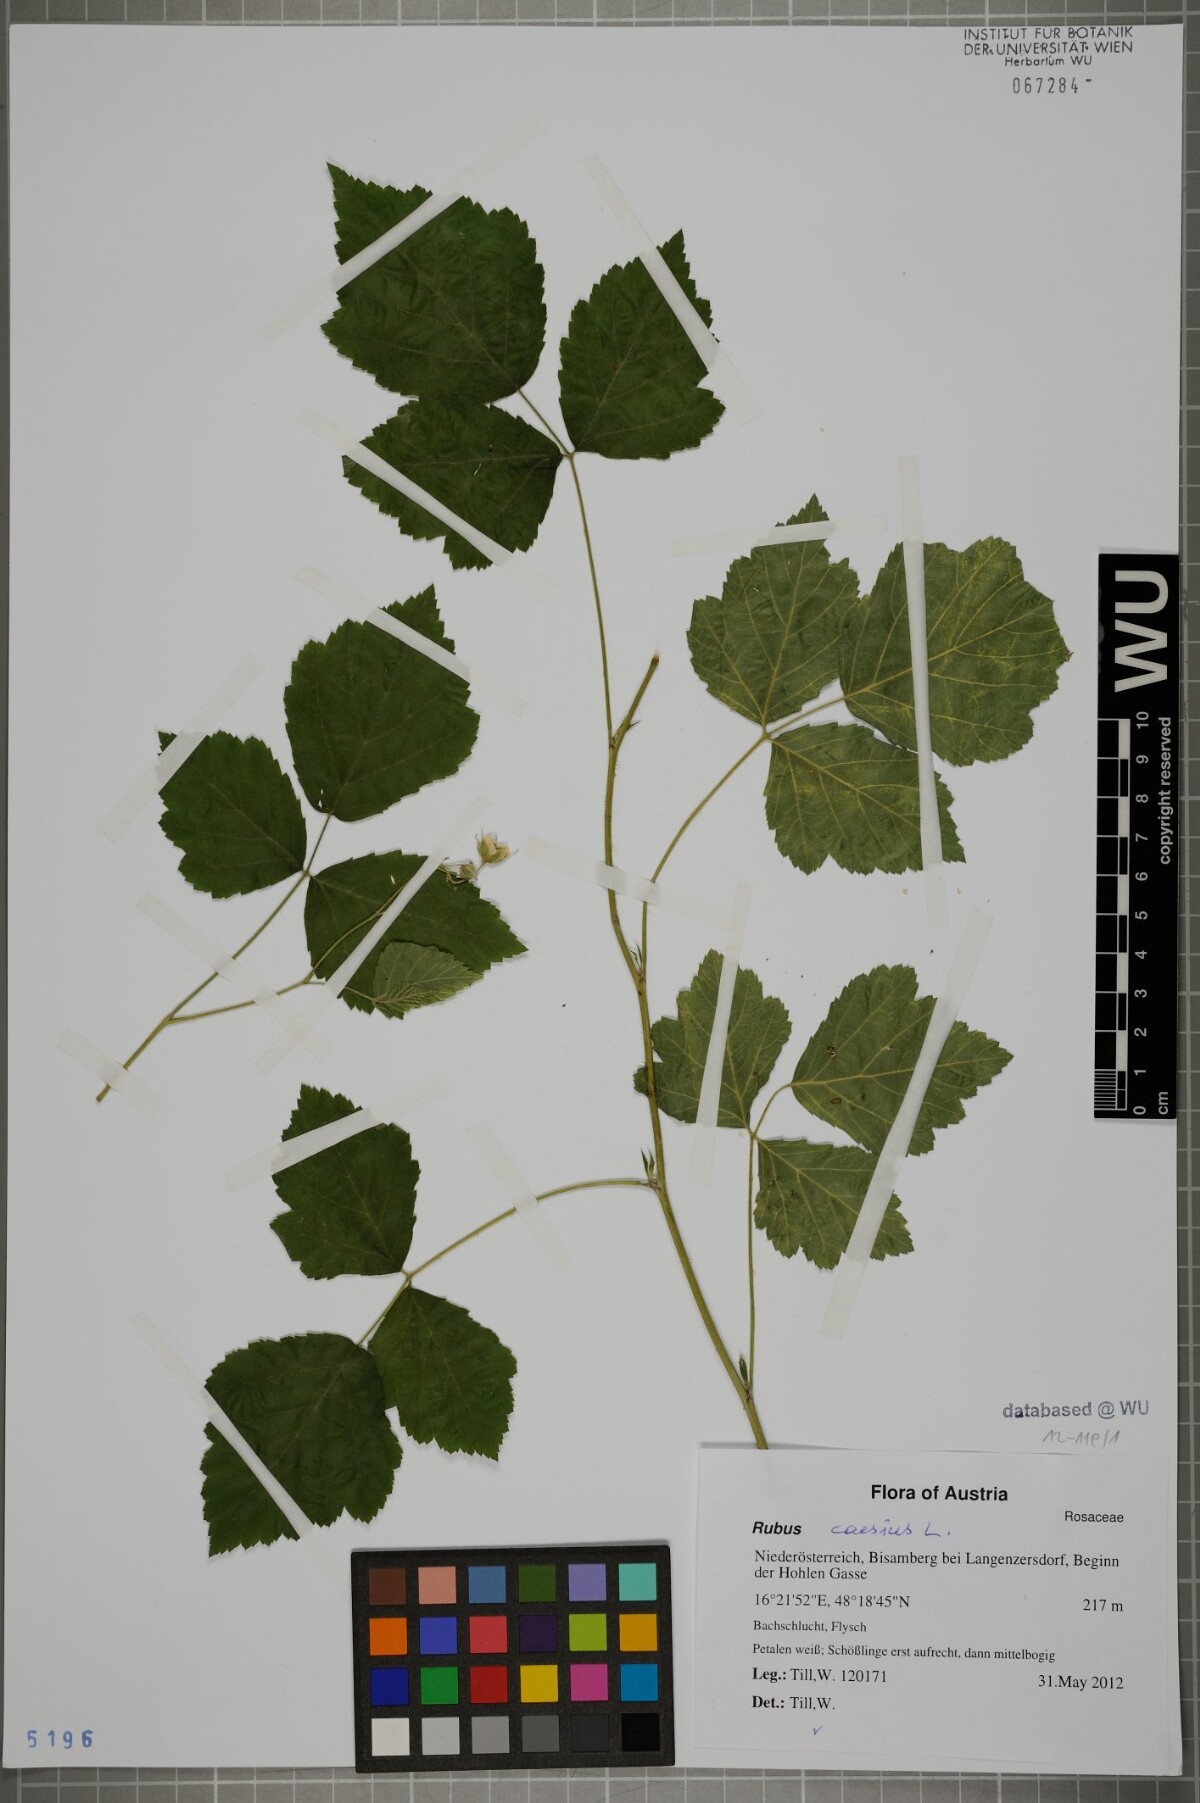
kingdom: Plantae
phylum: Tracheophyta
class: Magnoliopsida
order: Rosales
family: Rosaceae
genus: Rubus
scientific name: Rubus caesius
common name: Dewberry
